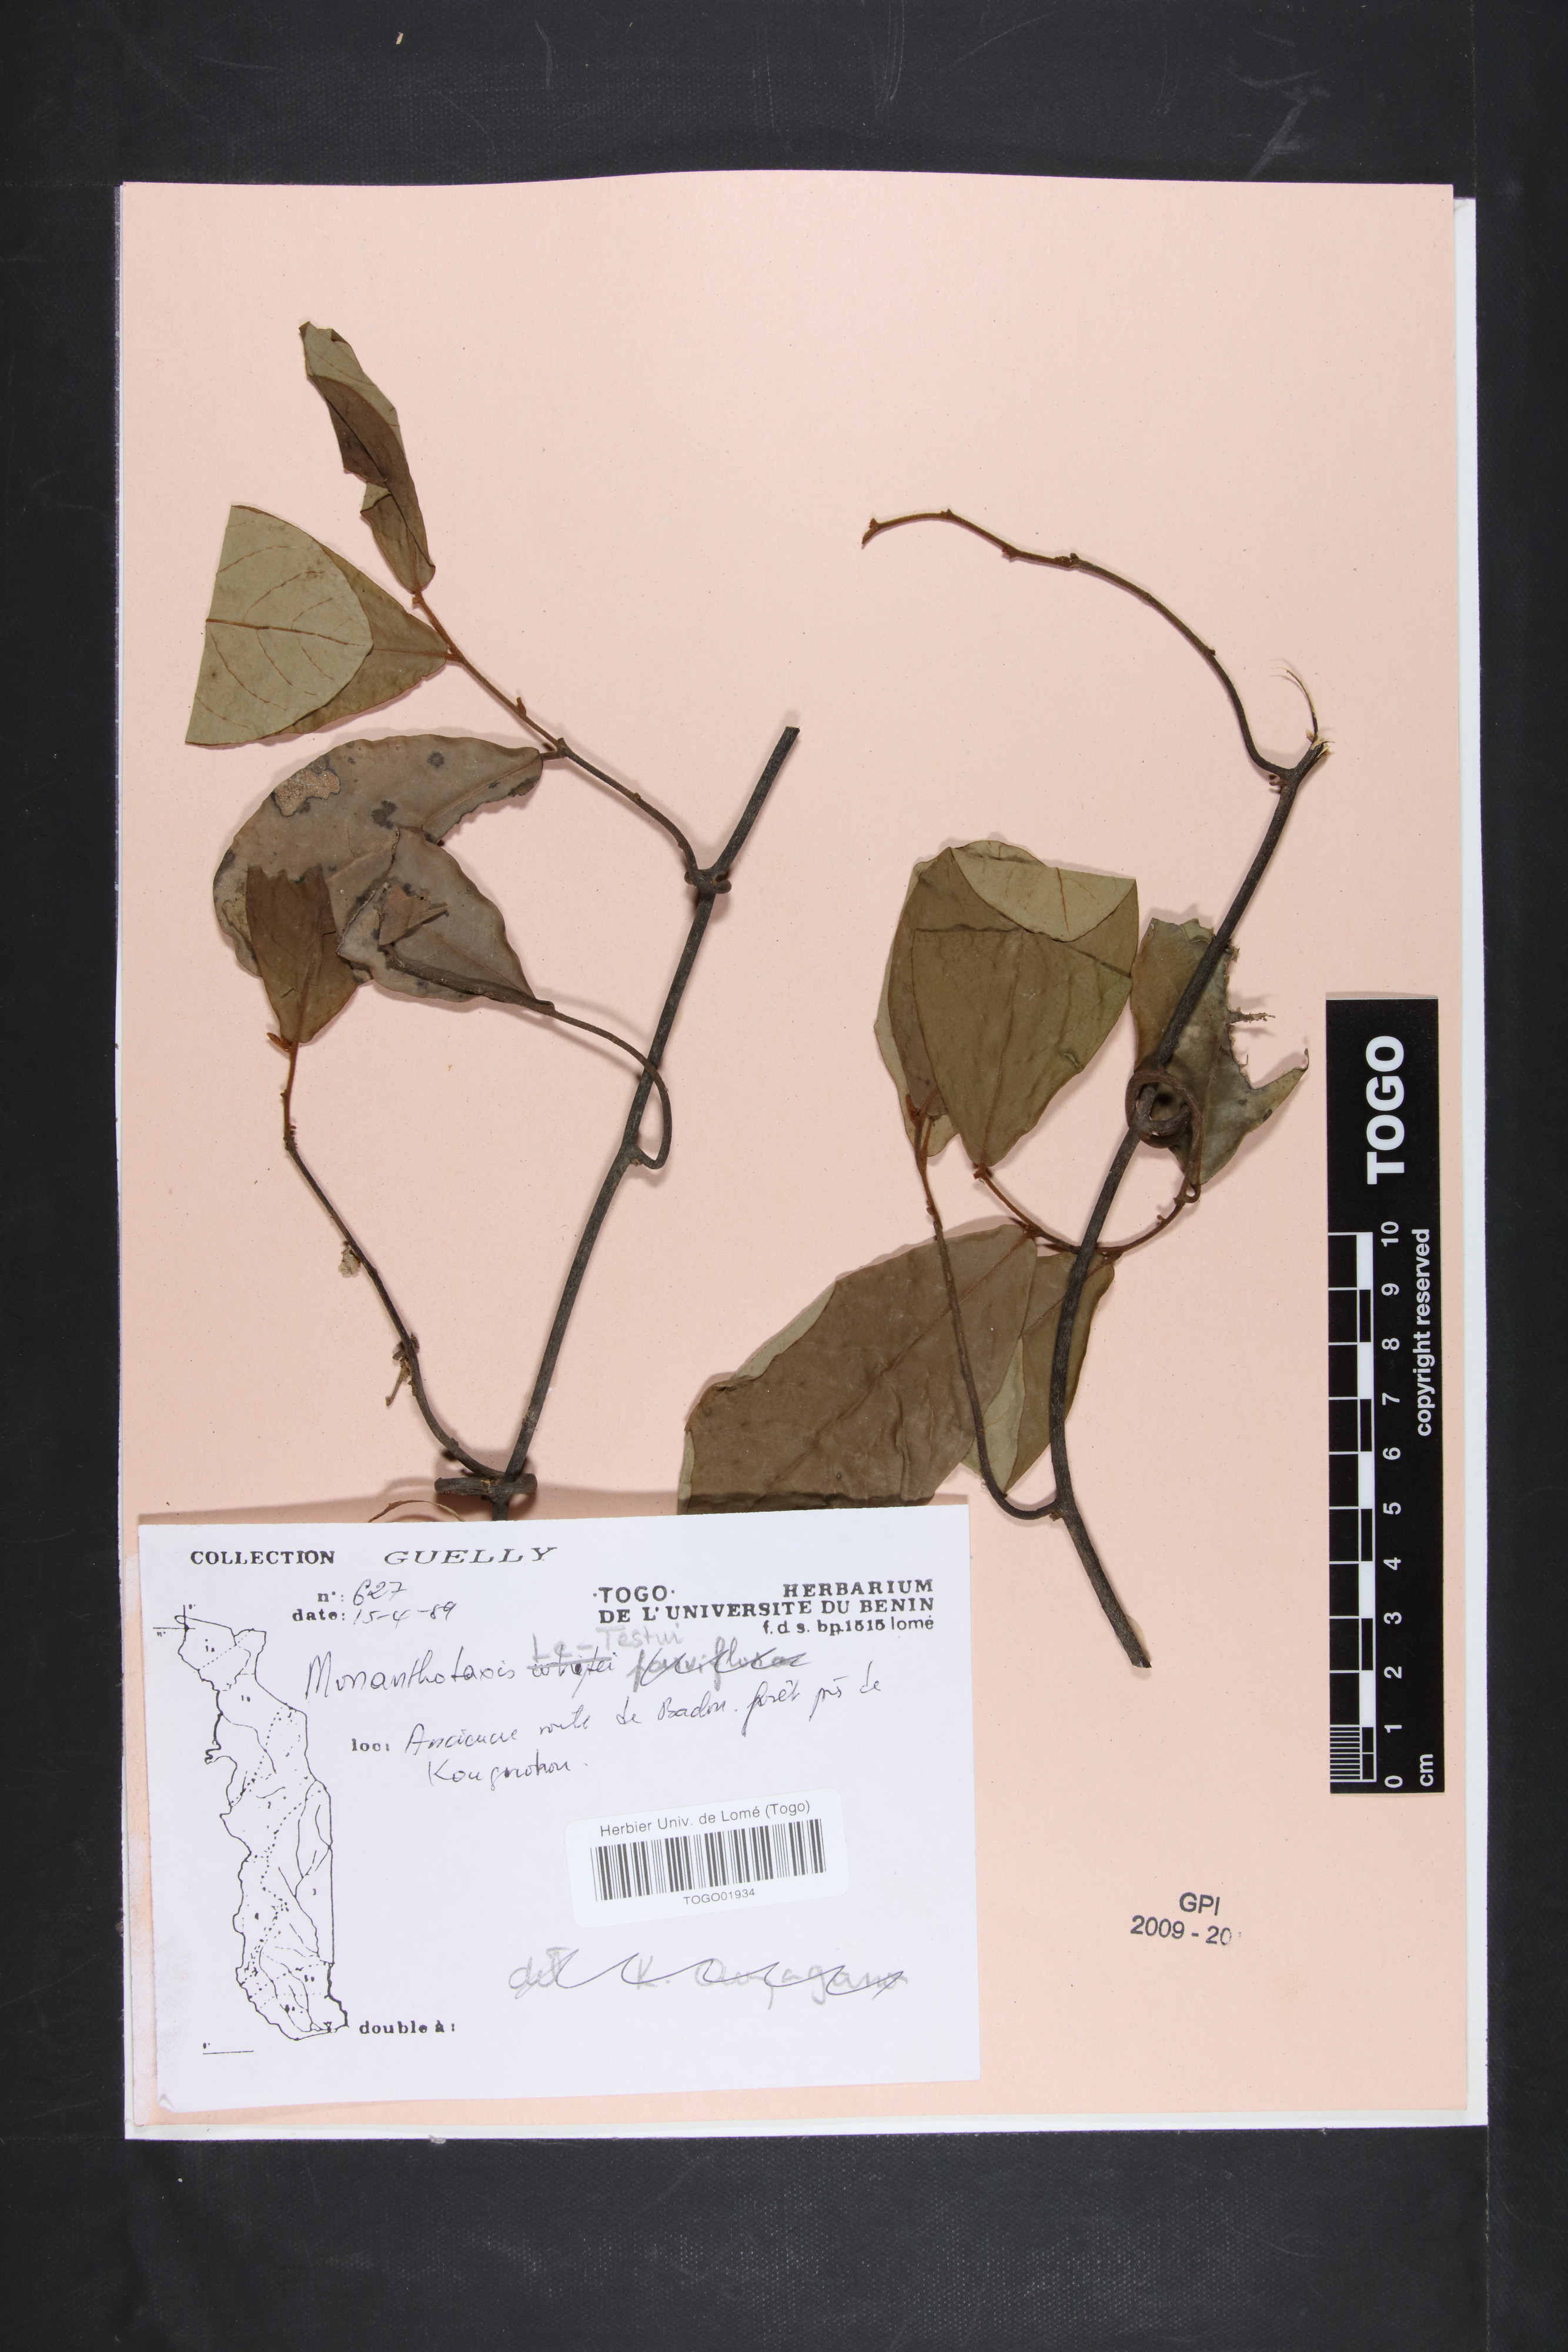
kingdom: Plantae
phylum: Tracheophyta
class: Magnoliopsida
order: Magnoliales
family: Annonaceae
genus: Monanthotaxis
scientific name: Monanthotaxis le-testui
